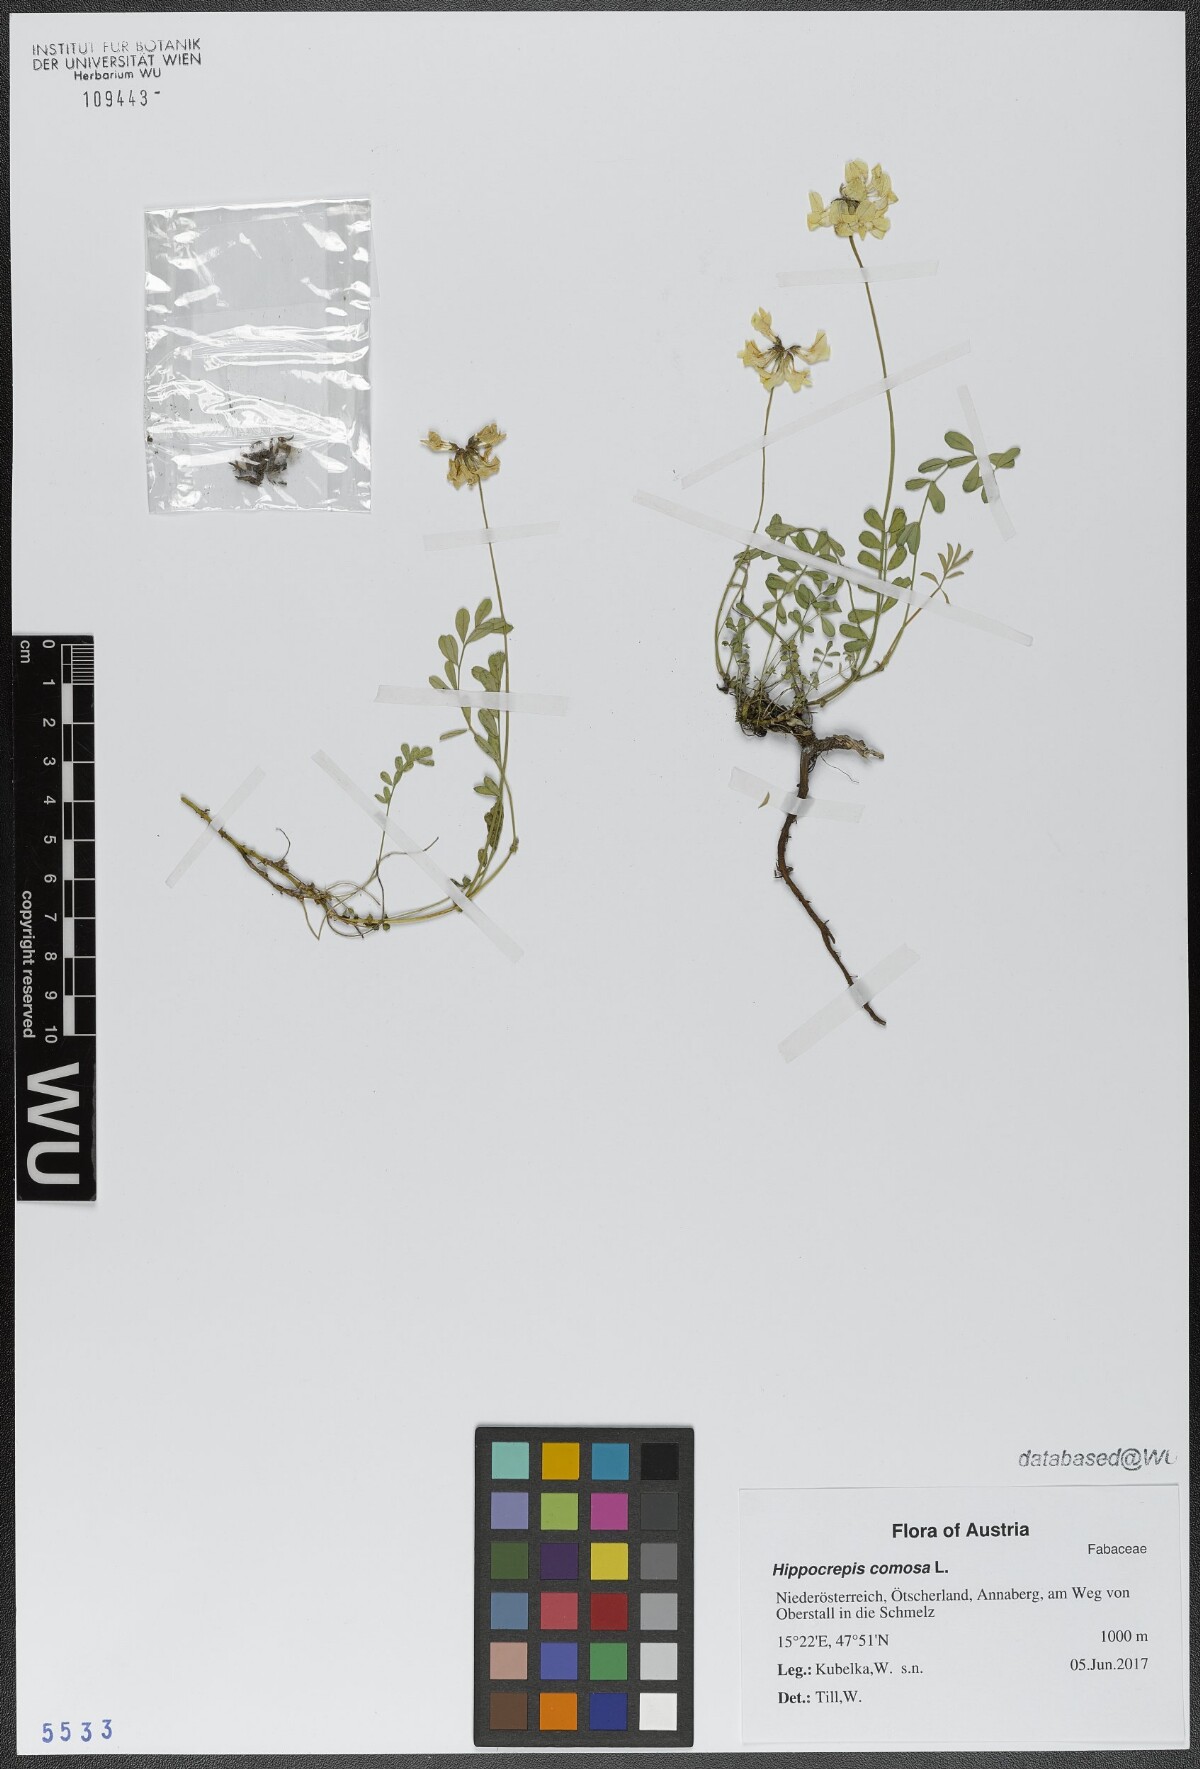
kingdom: Plantae
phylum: Tracheophyta
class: Magnoliopsida
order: Fabales
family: Fabaceae
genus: Hippocrepis
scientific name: Hippocrepis comosa
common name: Horseshoe vetch
